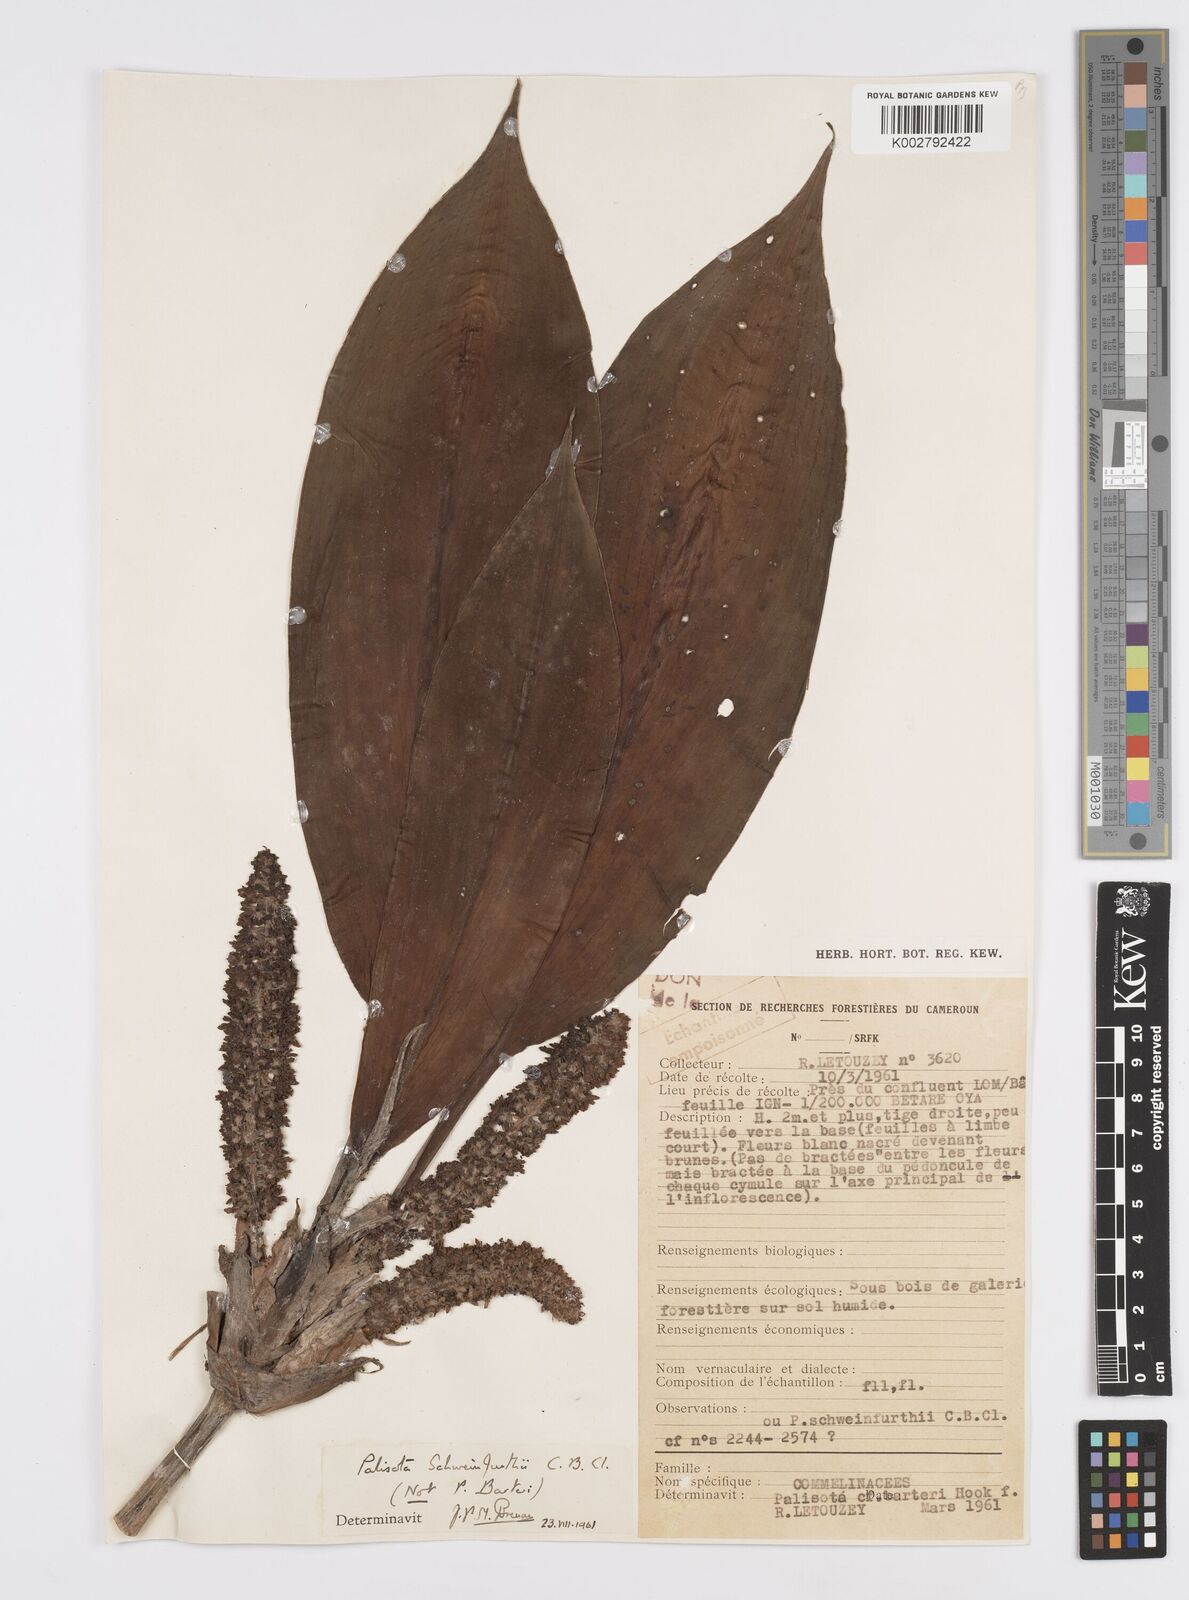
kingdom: Plantae
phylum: Tracheophyta
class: Liliopsida
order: Commelinales
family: Commelinaceae
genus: Palisota
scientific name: Palisota schweinfurthii
